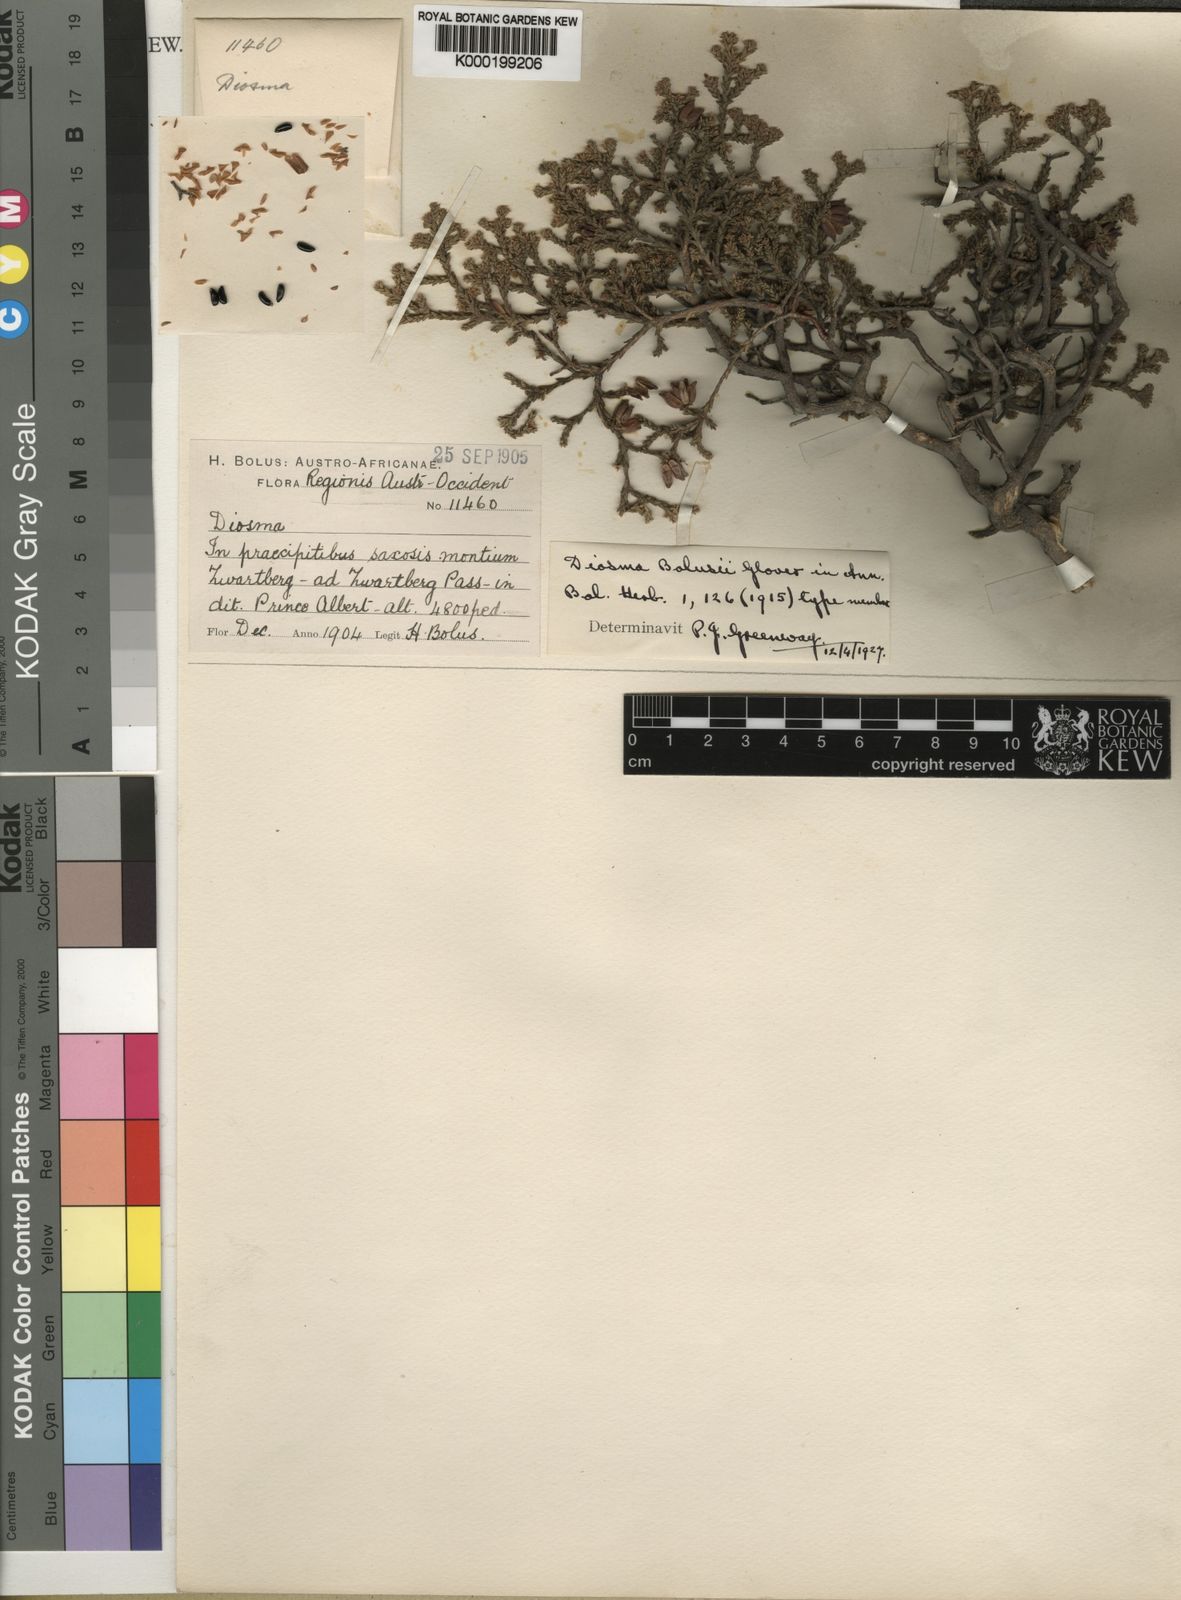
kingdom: Plantae
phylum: Tracheophyta
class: Magnoliopsida
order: Sapindales
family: Rutaceae
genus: Acmadenia
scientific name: Acmadenia
